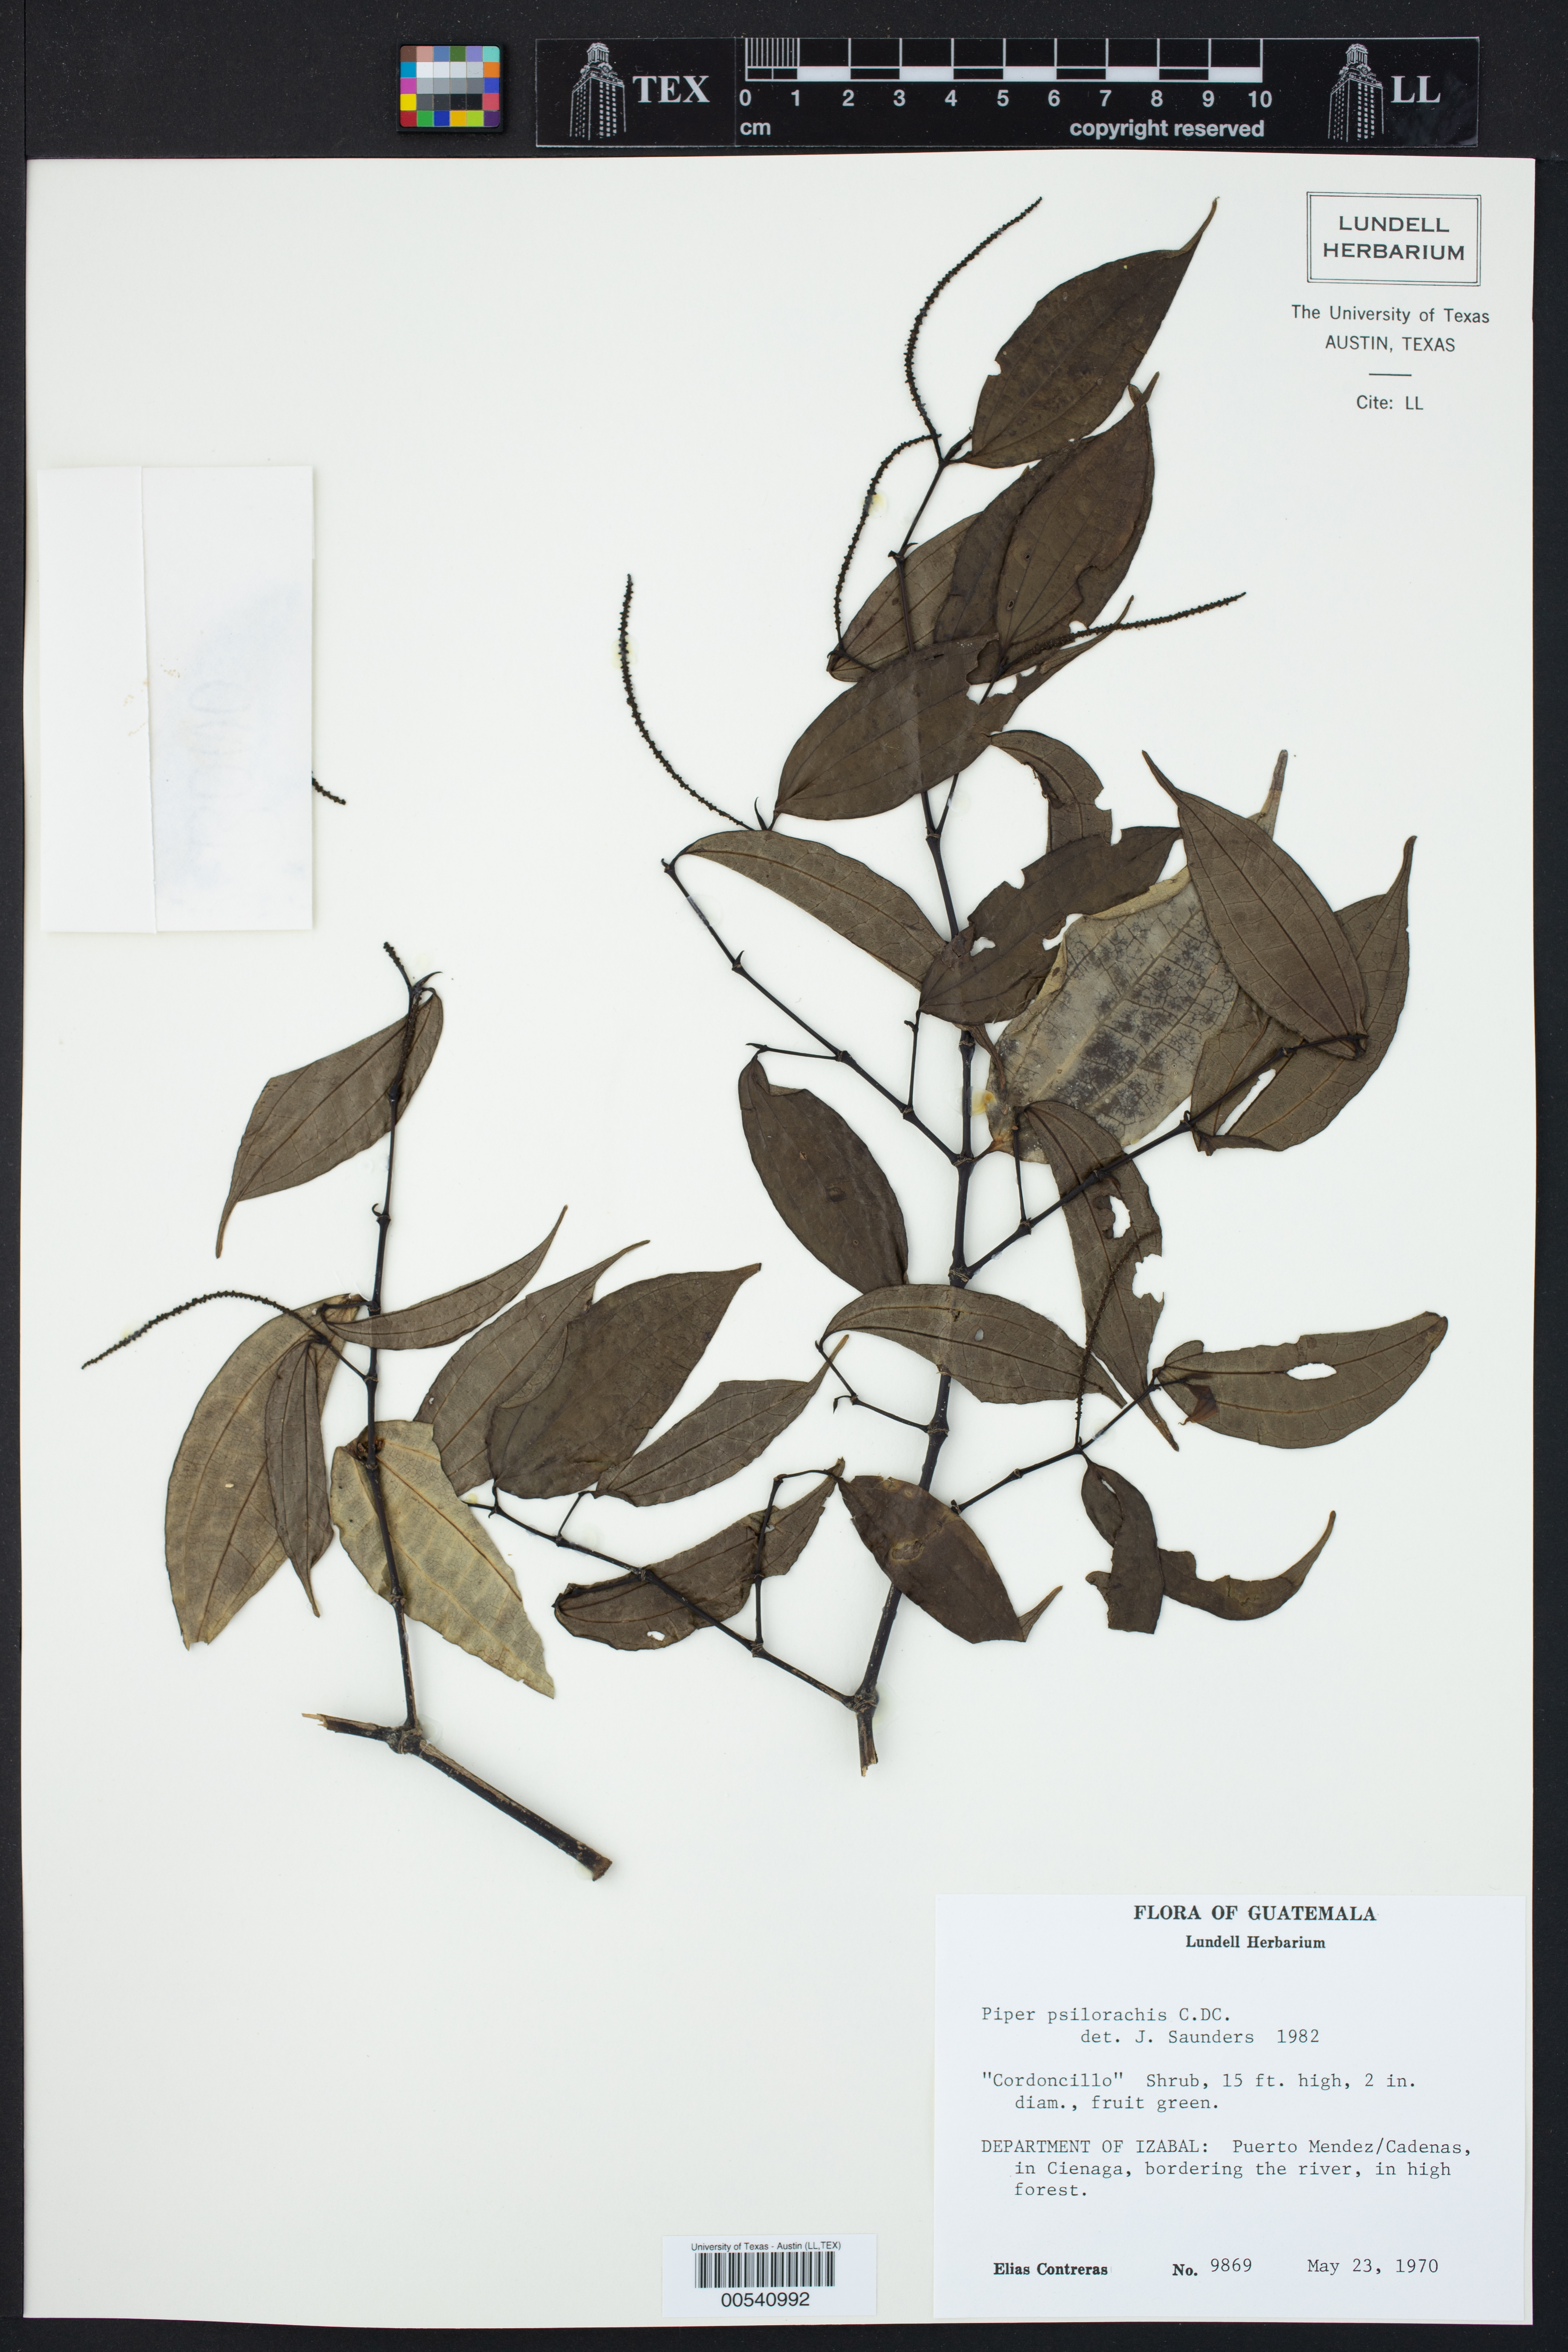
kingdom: Plantae
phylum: Tracheophyta
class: Magnoliopsida
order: Piperales
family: Piperaceae
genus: Piper
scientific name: Piper psilorhachis
